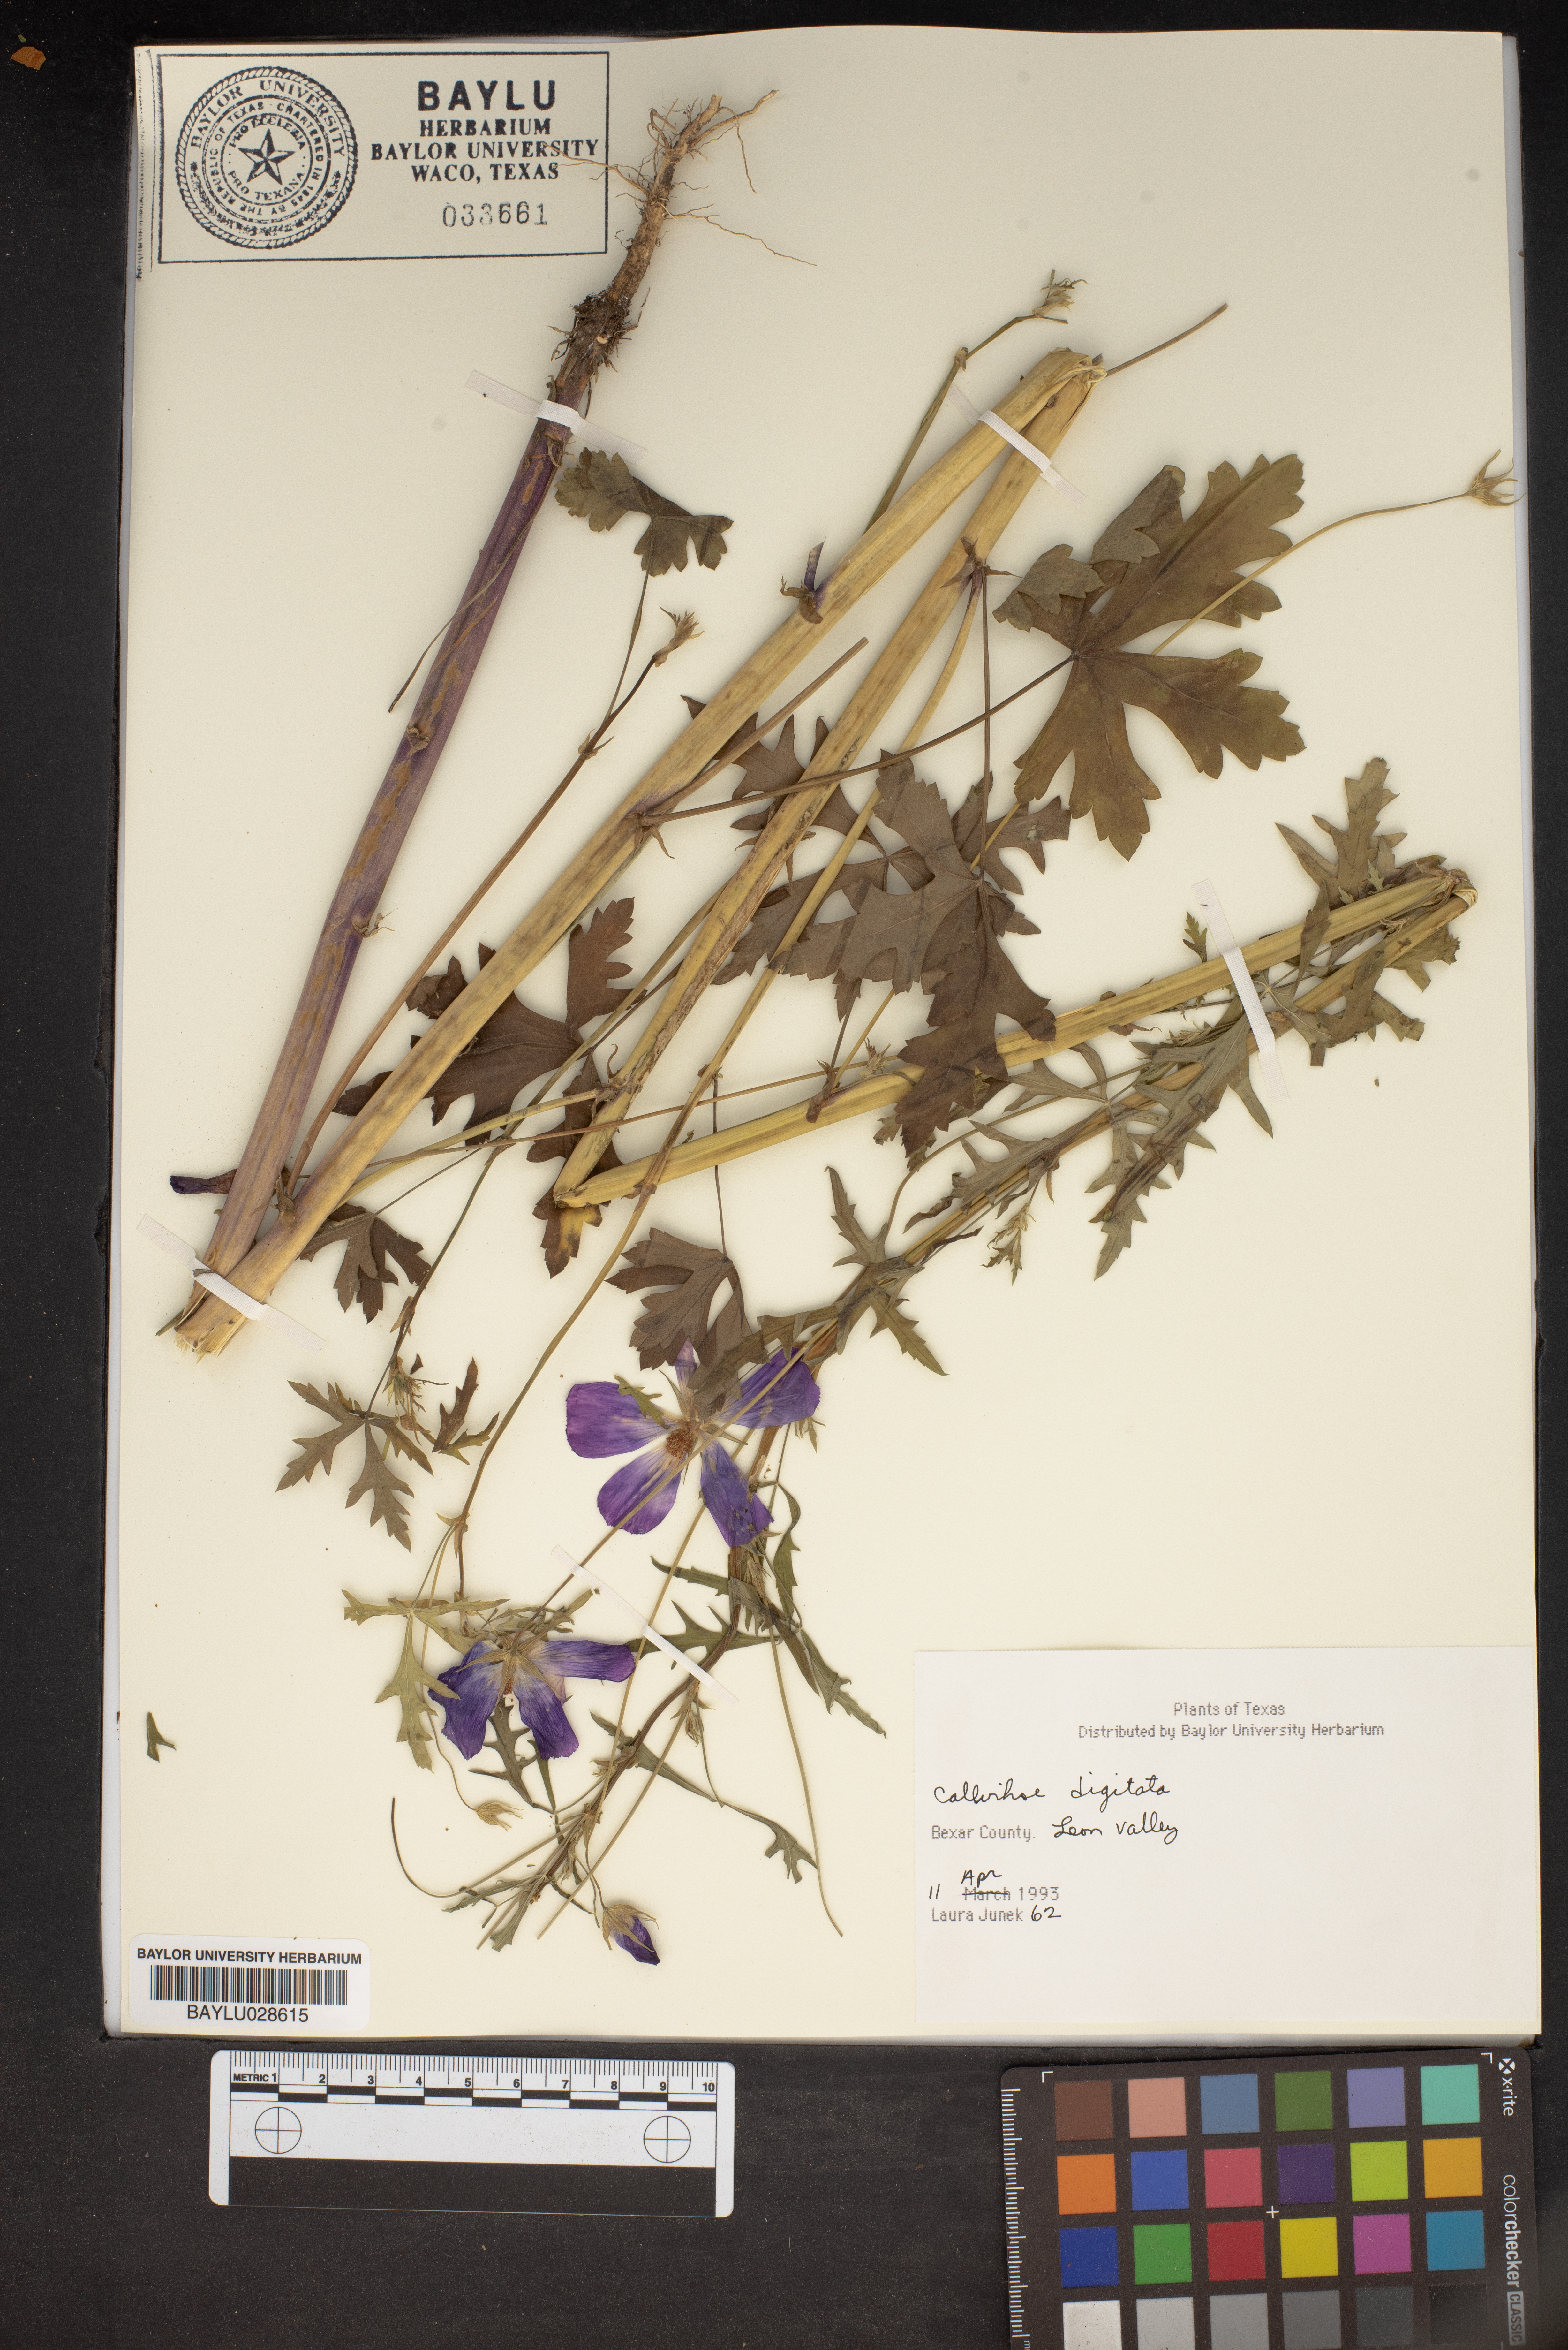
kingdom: Plantae
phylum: Tracheophyta
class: Magnoliopsida
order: Malvales
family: Malvaceae
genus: Callirhoe
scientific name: Callirhoe digitata
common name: Finger poppy-mallow
